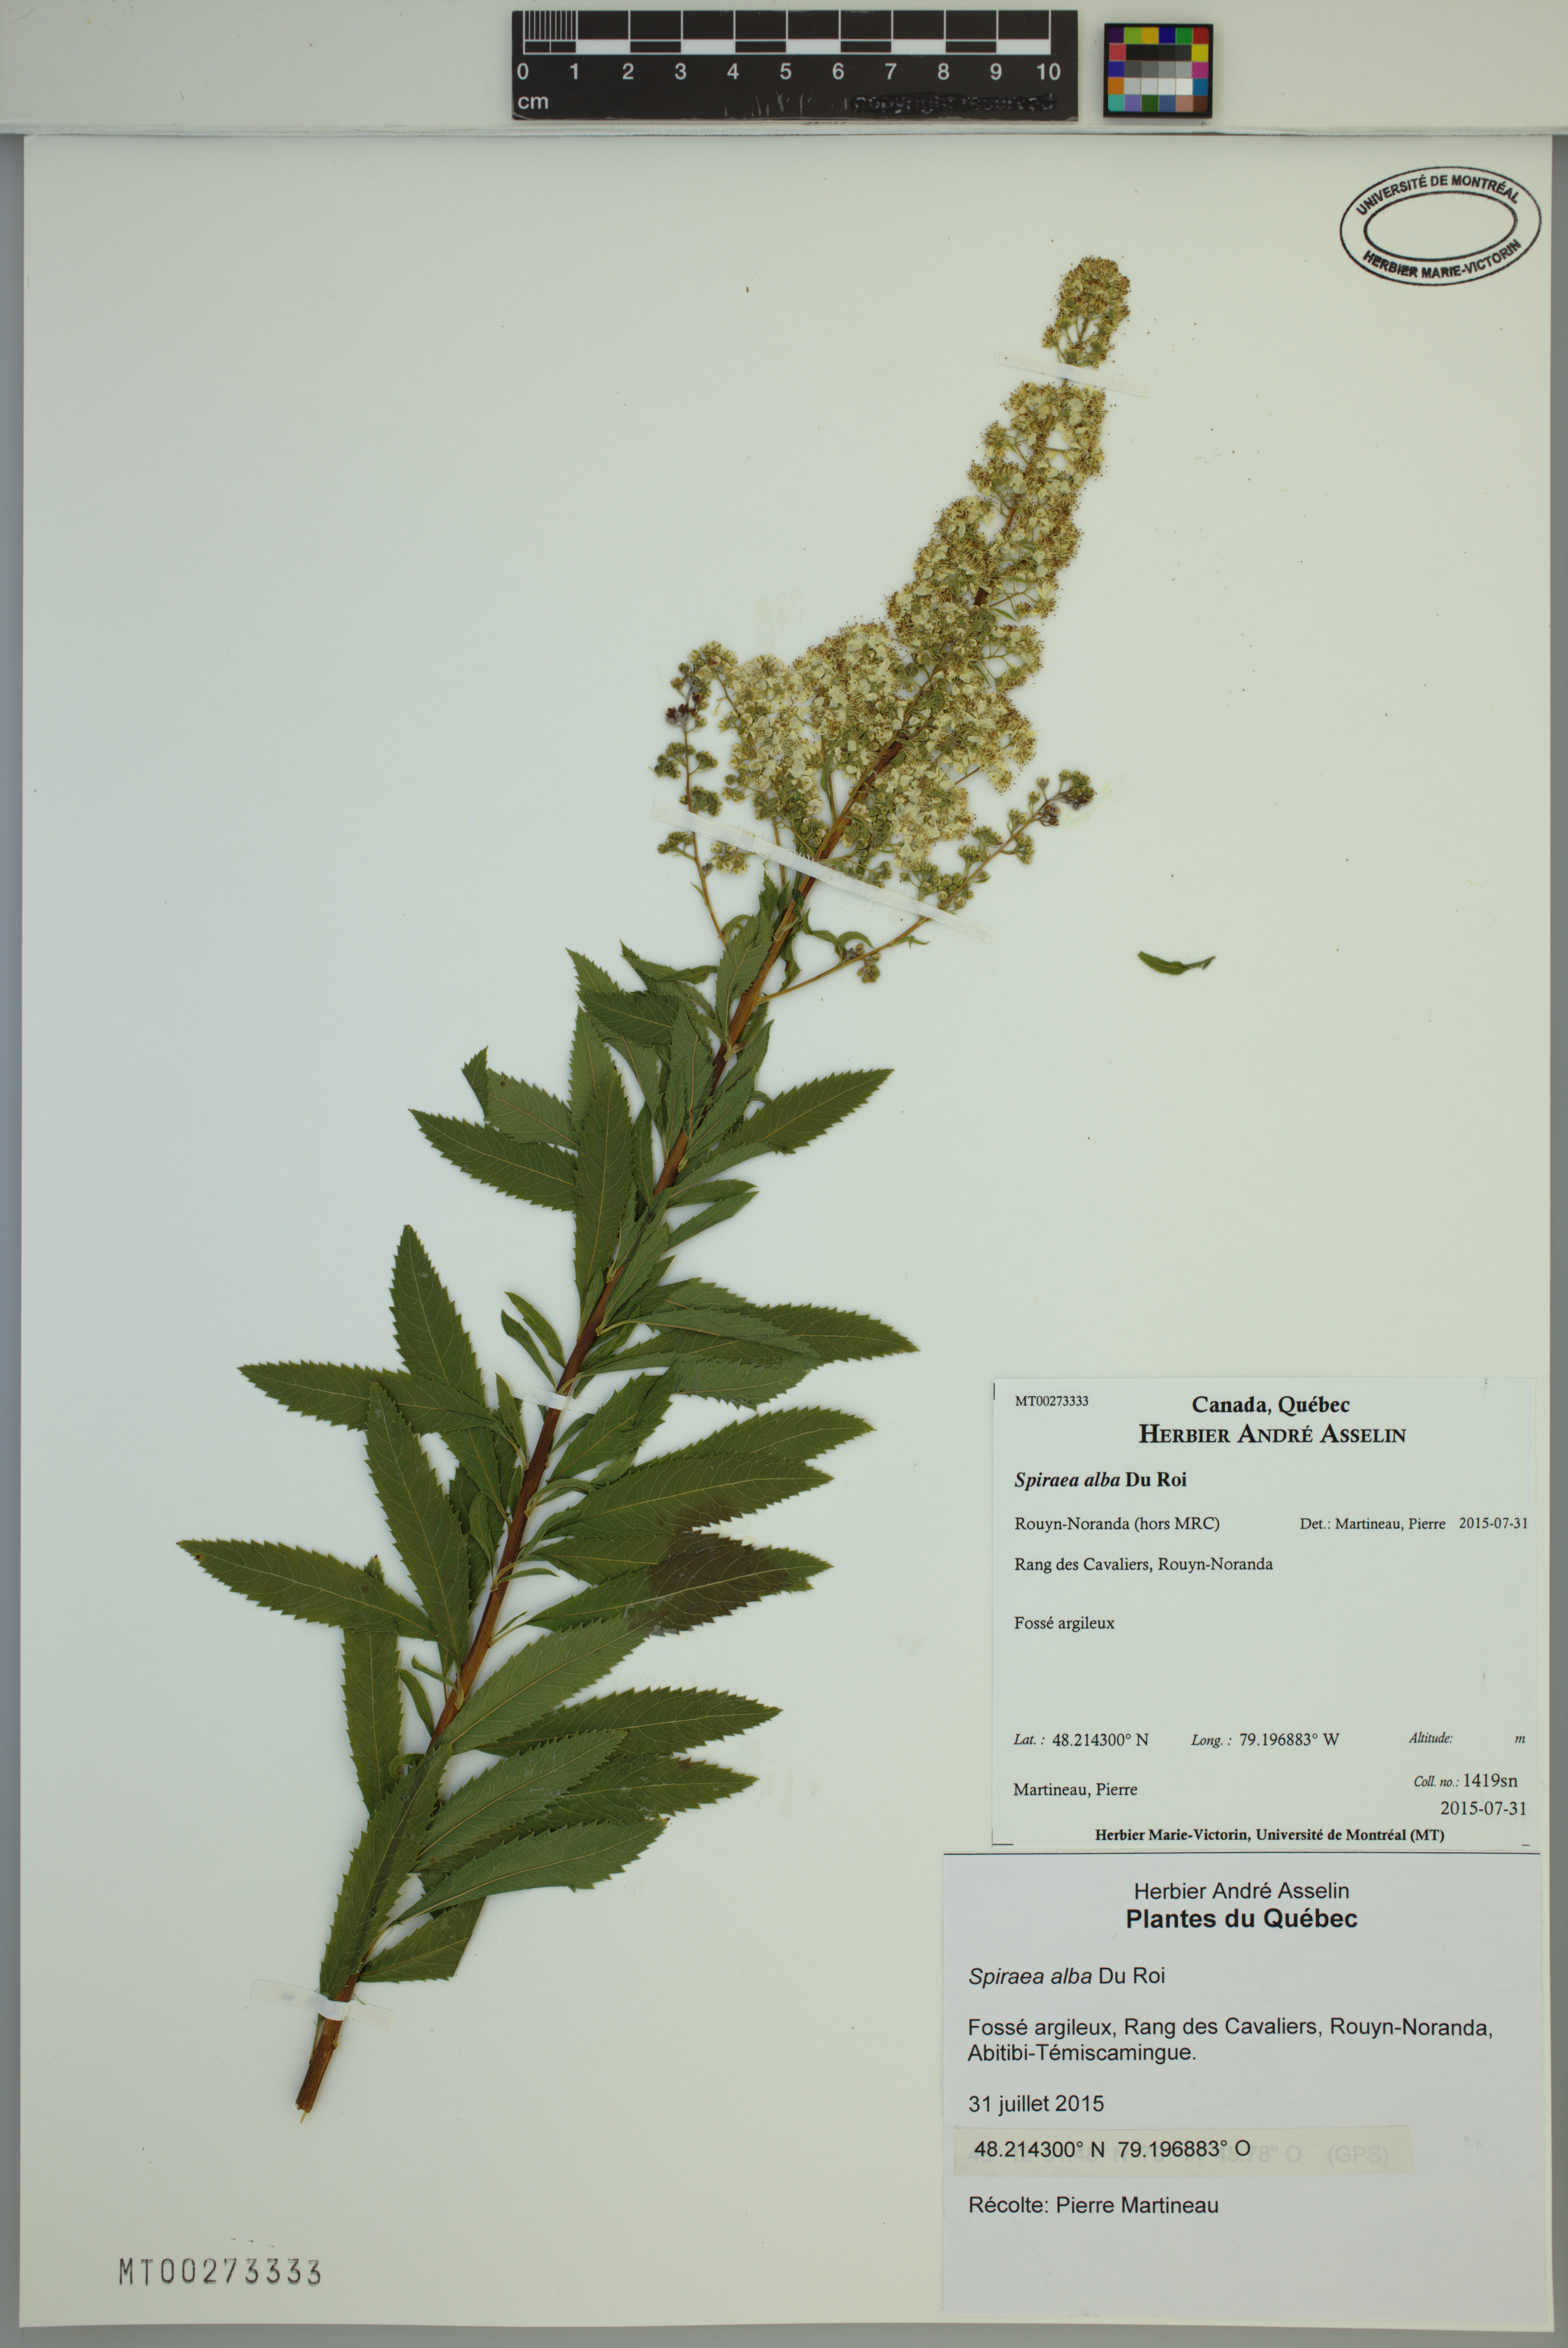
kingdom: Plantae
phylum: Tracheophyta
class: Magnoliopsida
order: Rosales
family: Rosaceae
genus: Spiraea
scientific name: Spiraea alba
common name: Pale bridewort
